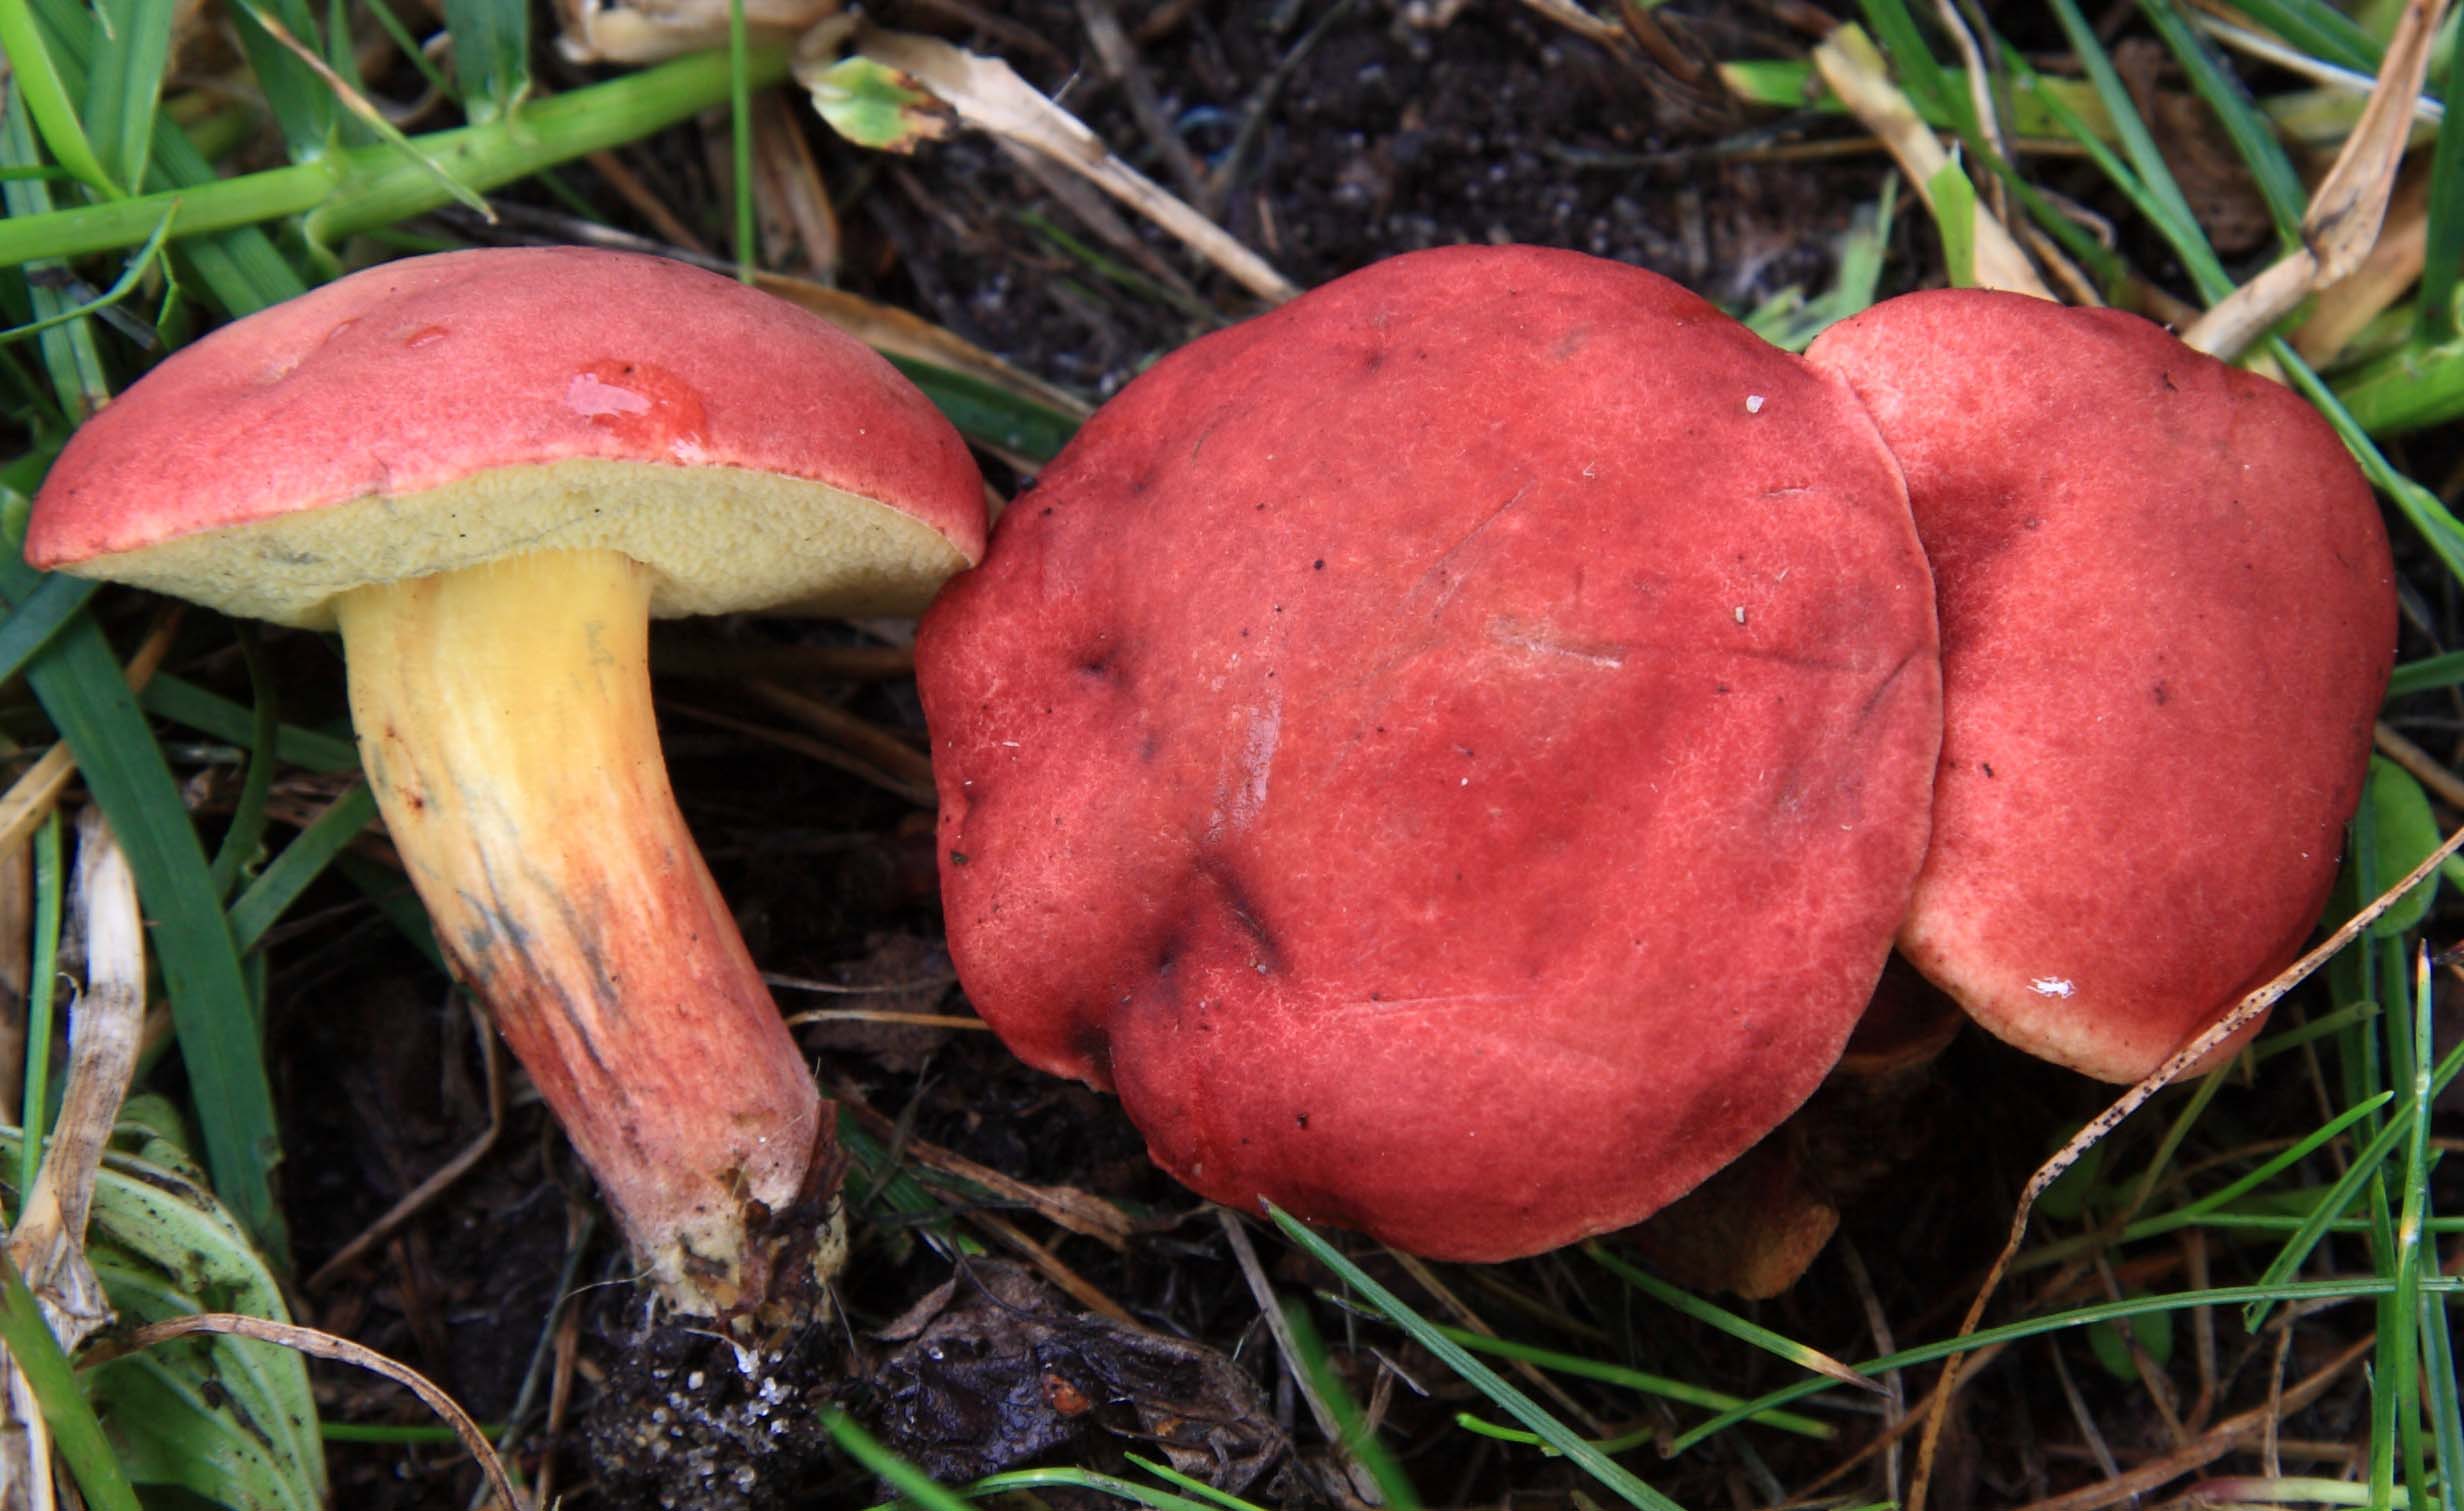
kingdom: Fungi
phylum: Basidiomycota
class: Agaricomycetes
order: Boletales
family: Boletaceae
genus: Hortiboletus
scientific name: Hortiboletus rubellus
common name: blodrød rørhat
